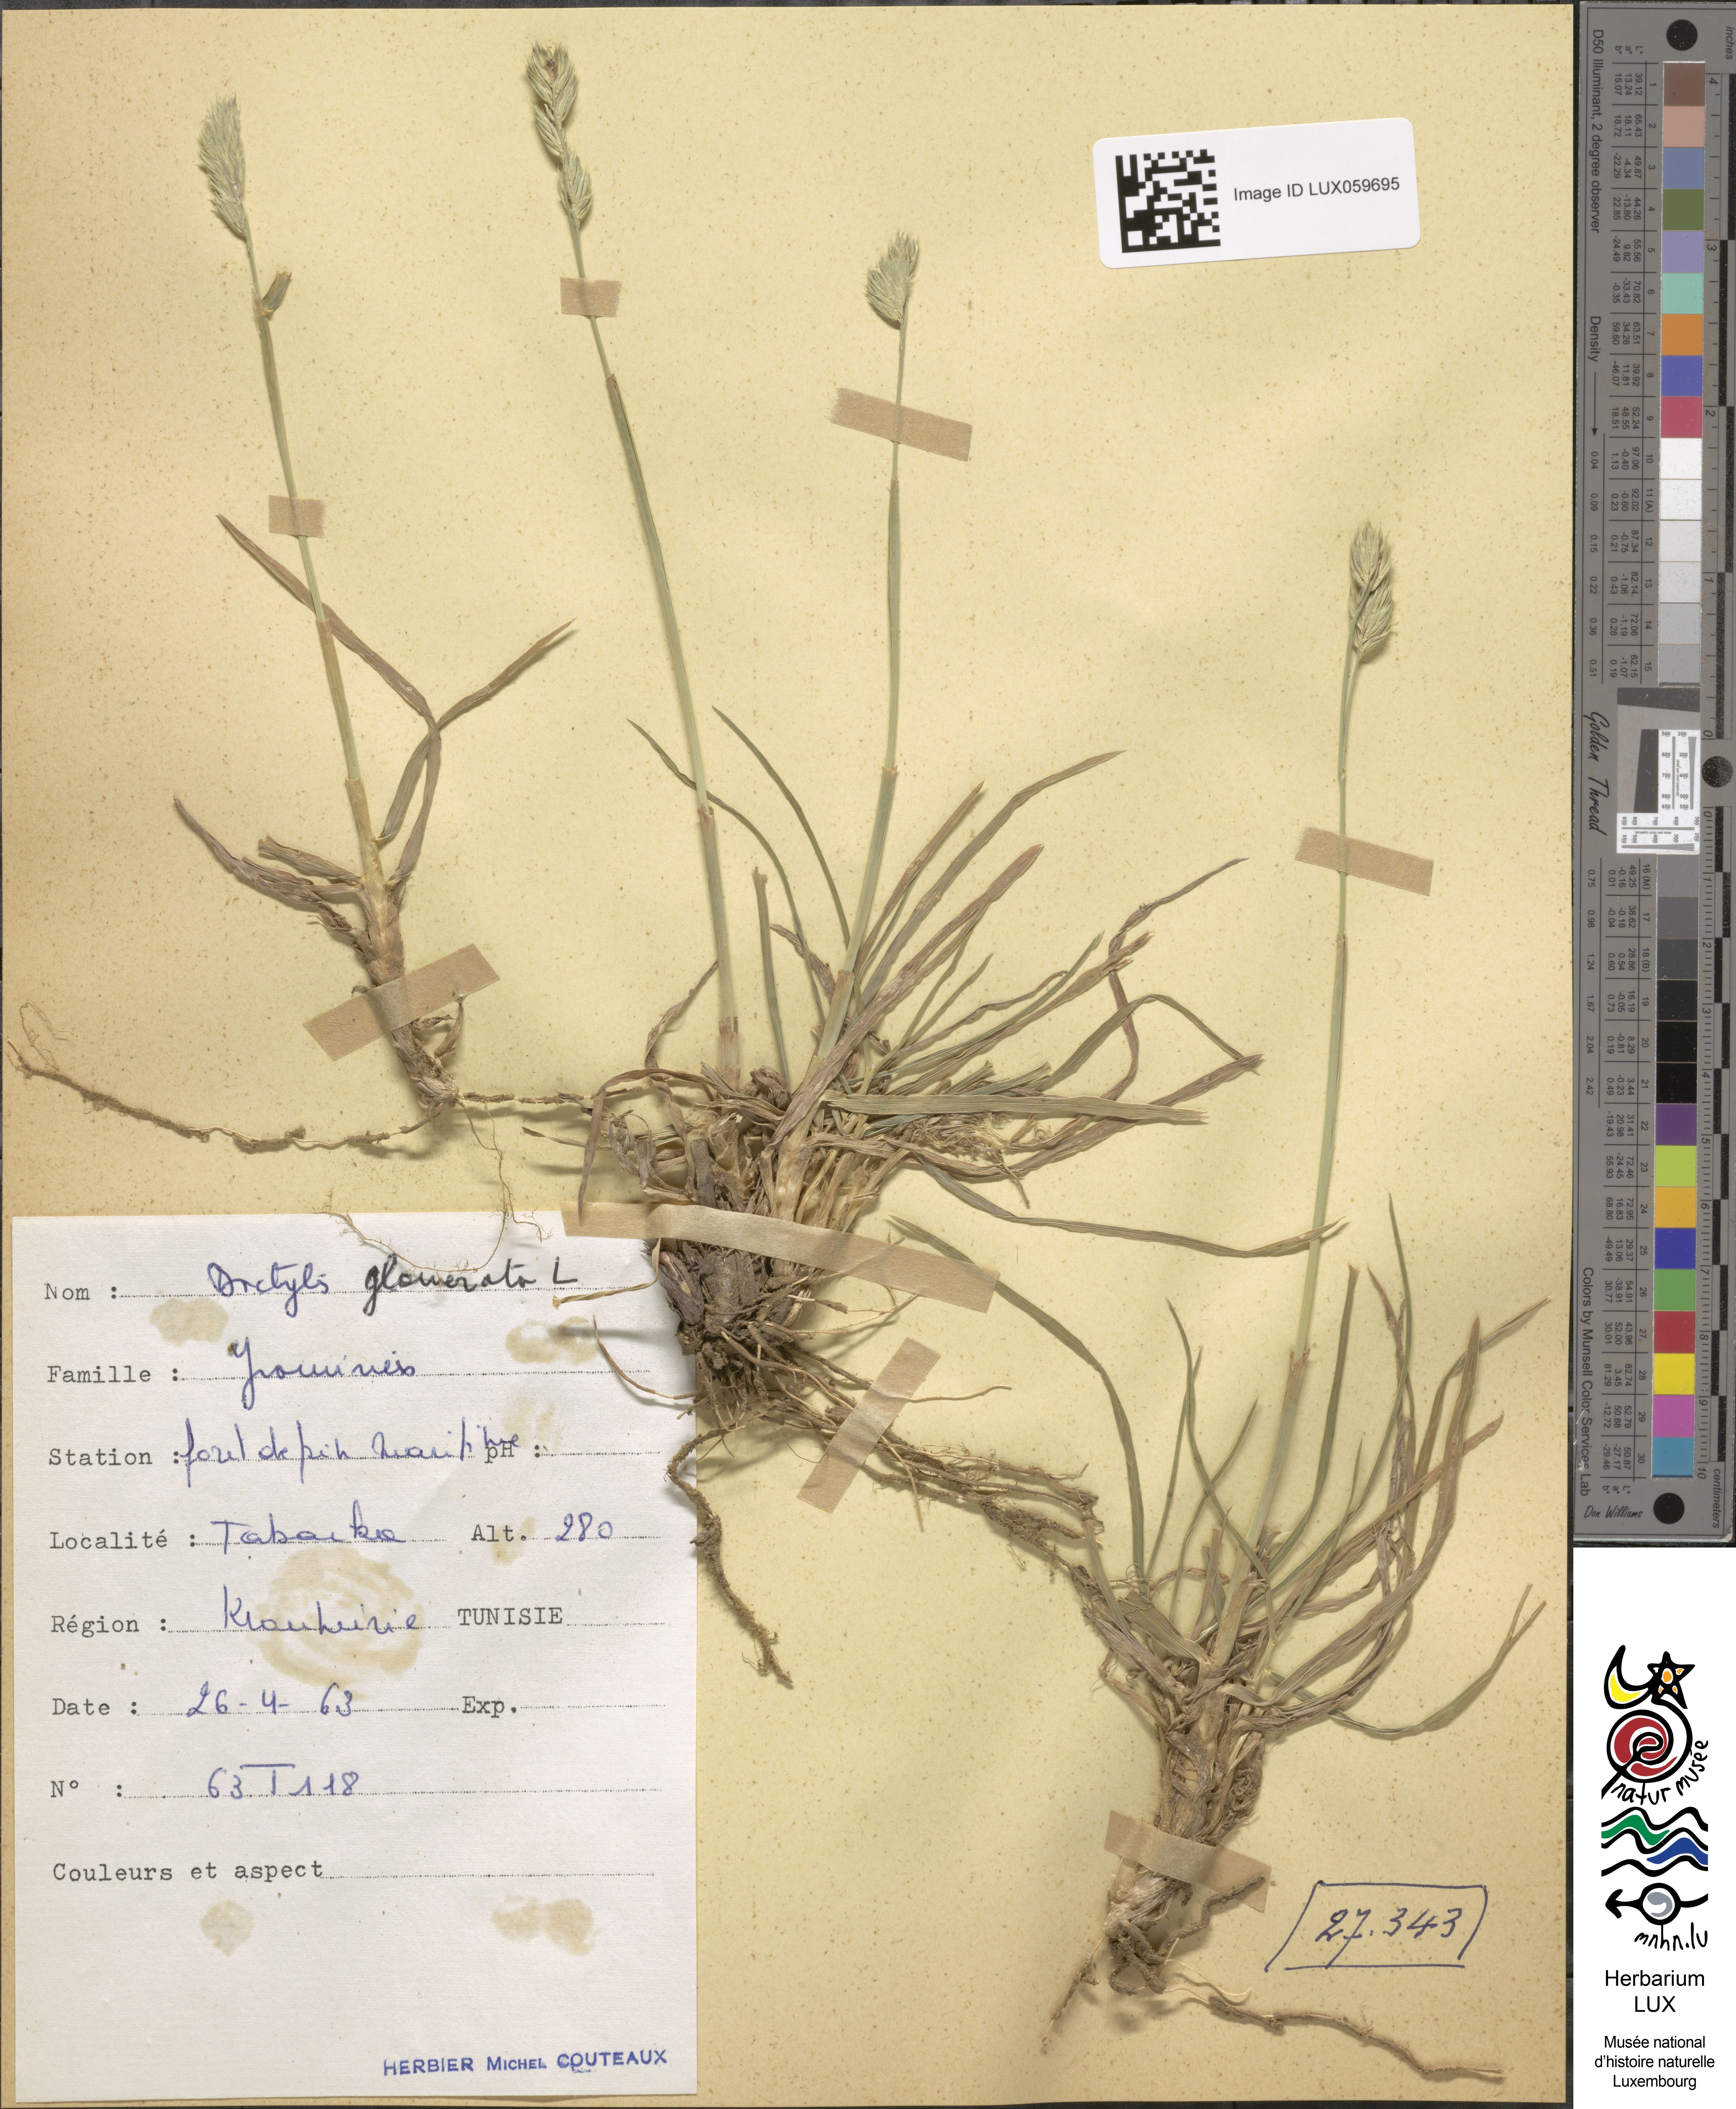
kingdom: Plantae
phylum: Tracheophyta
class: Liliopsida
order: Poales
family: Poaceae
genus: Dactylis
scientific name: Dactylis glomerata
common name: Orchardgrass
